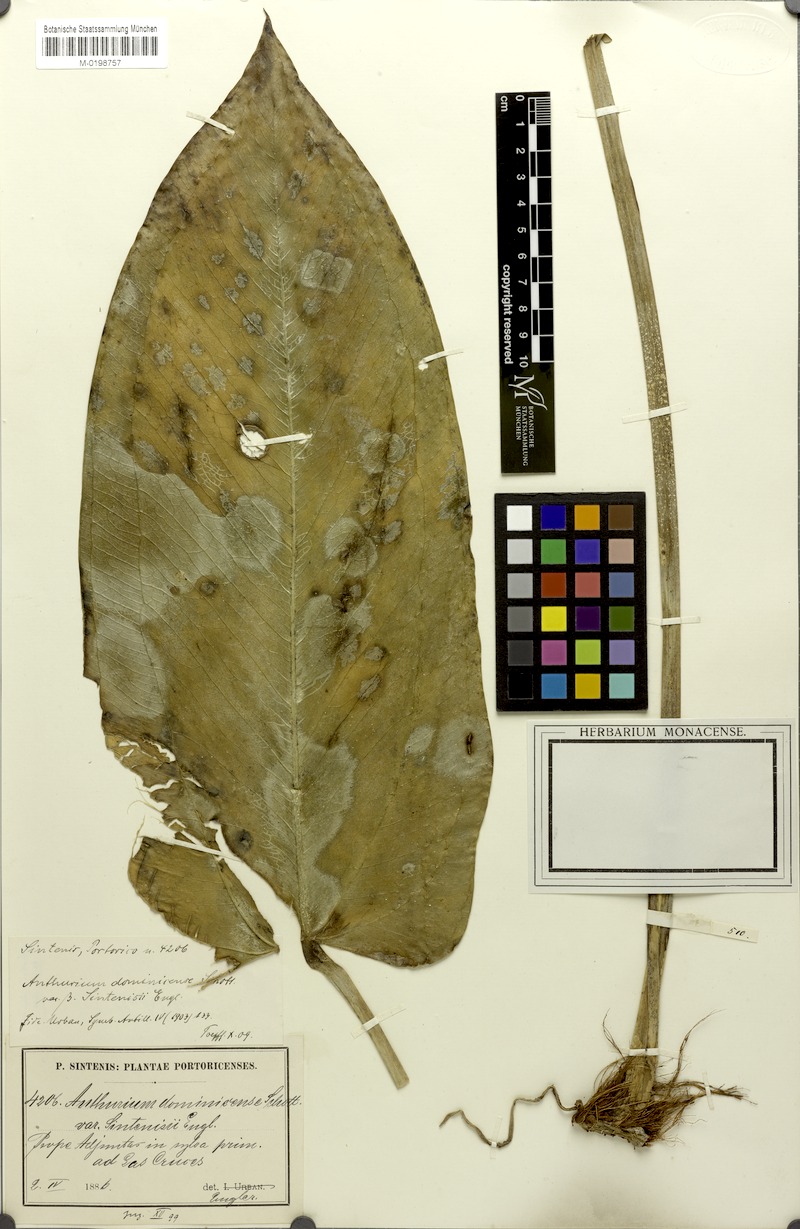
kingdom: Plantae
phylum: Tracheophyta
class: Liliopsida
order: Alismatales
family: Araceae
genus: Anthurium
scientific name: Anthurium dominicense
